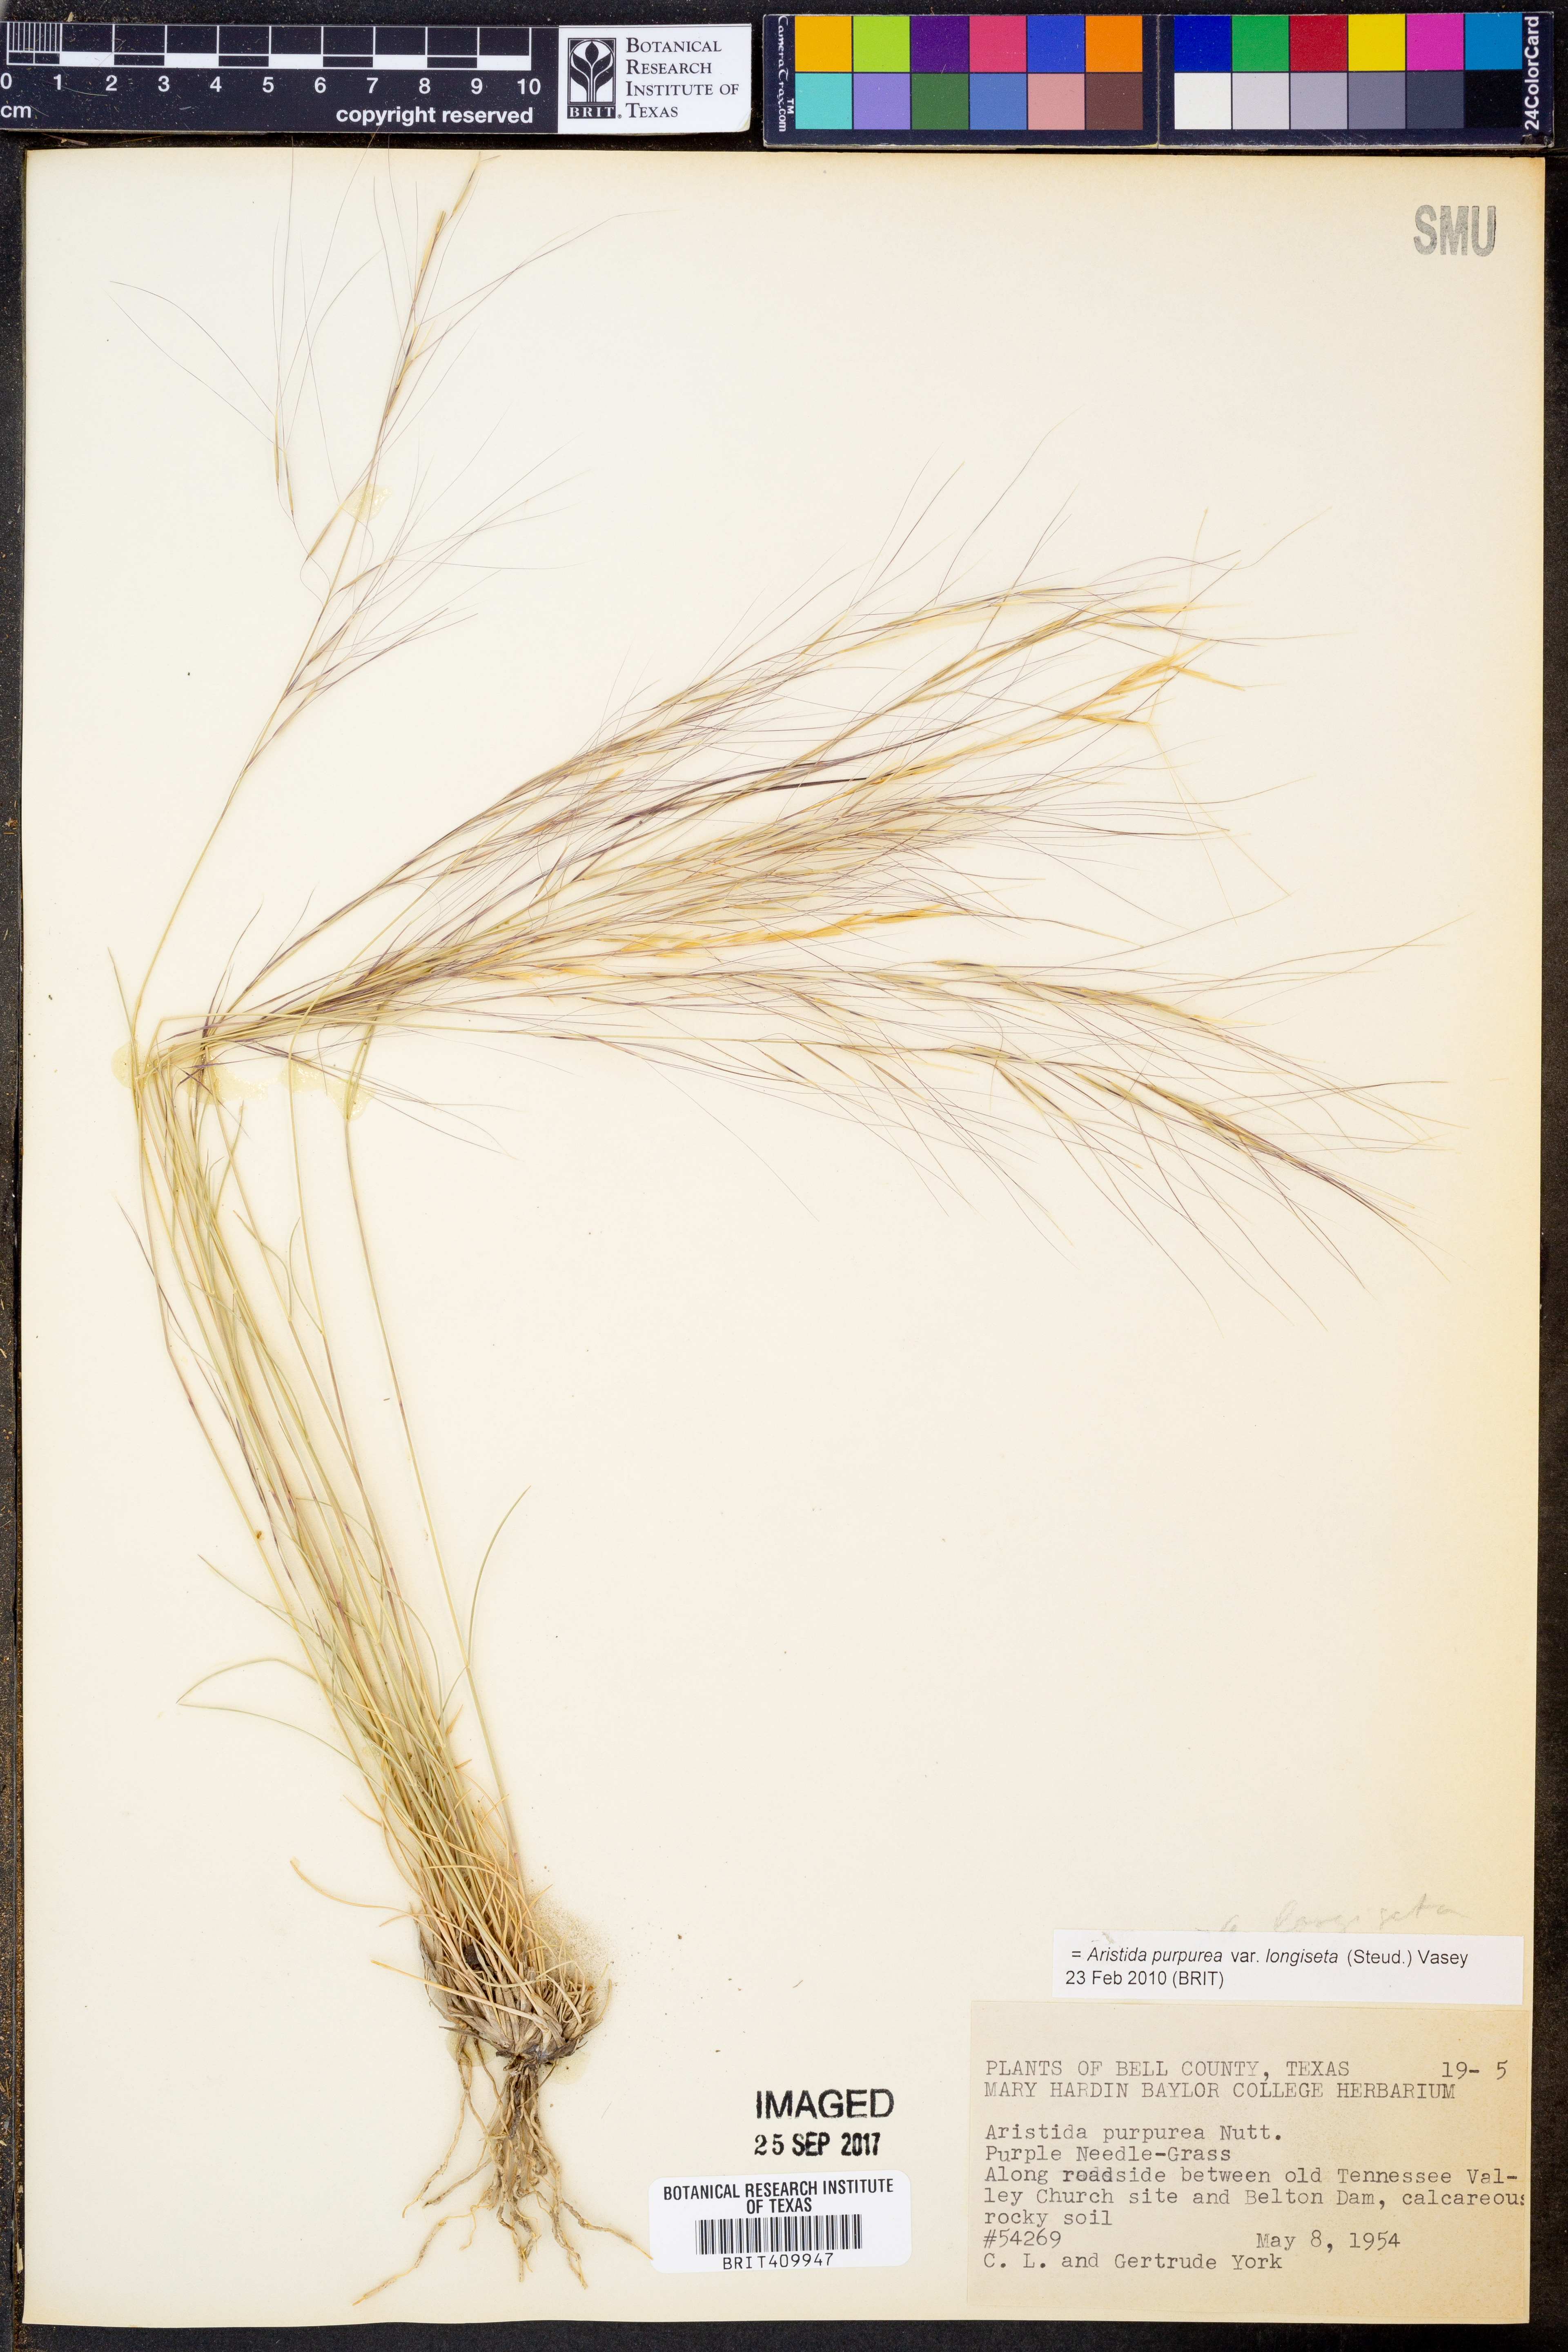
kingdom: Plantae
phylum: Tracheophyta
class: Liliopsida
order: Poales
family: Poaceae
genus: Aristida
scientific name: Aristida longiseta
